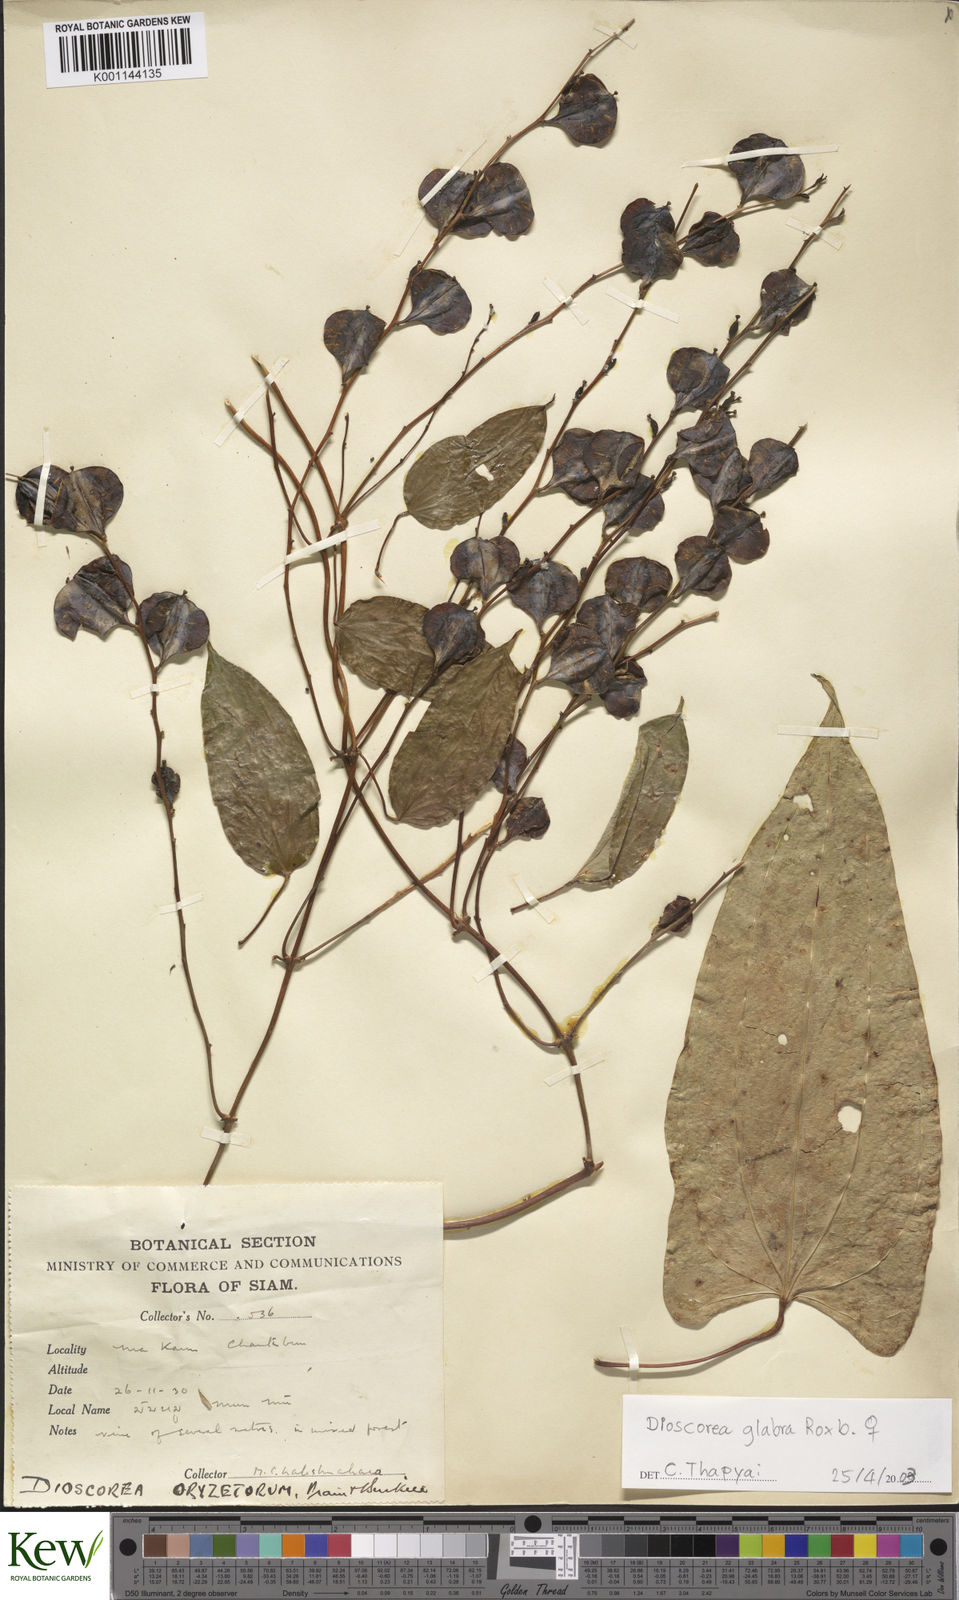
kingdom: Plantae
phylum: Tracheophyta
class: Liliopsida
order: Dioscoreales
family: Dioscoreaceae
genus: Dioscorea
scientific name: Dioscorea glabra
